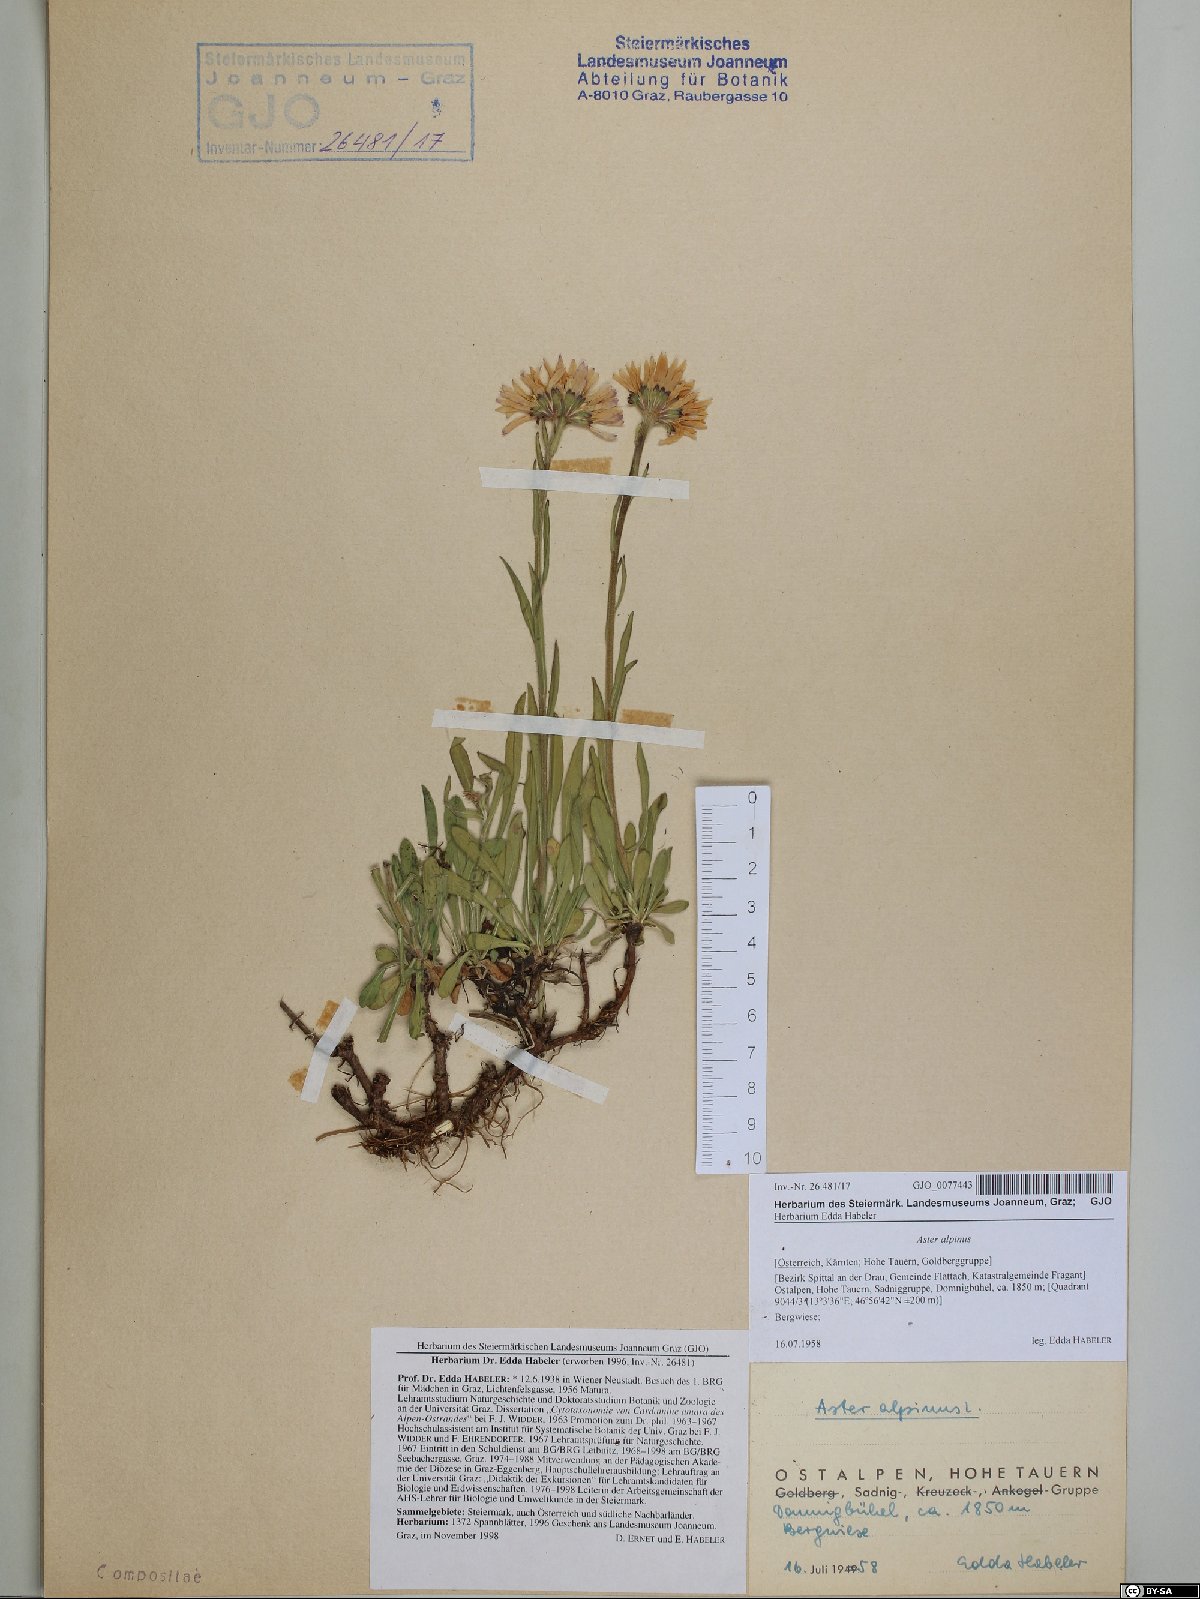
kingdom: Plantae
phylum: Tracheophyta
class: Magnoliopsida
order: Asterales
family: Asteraceae
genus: Aster
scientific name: Aster alpinus
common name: Alpine aster
